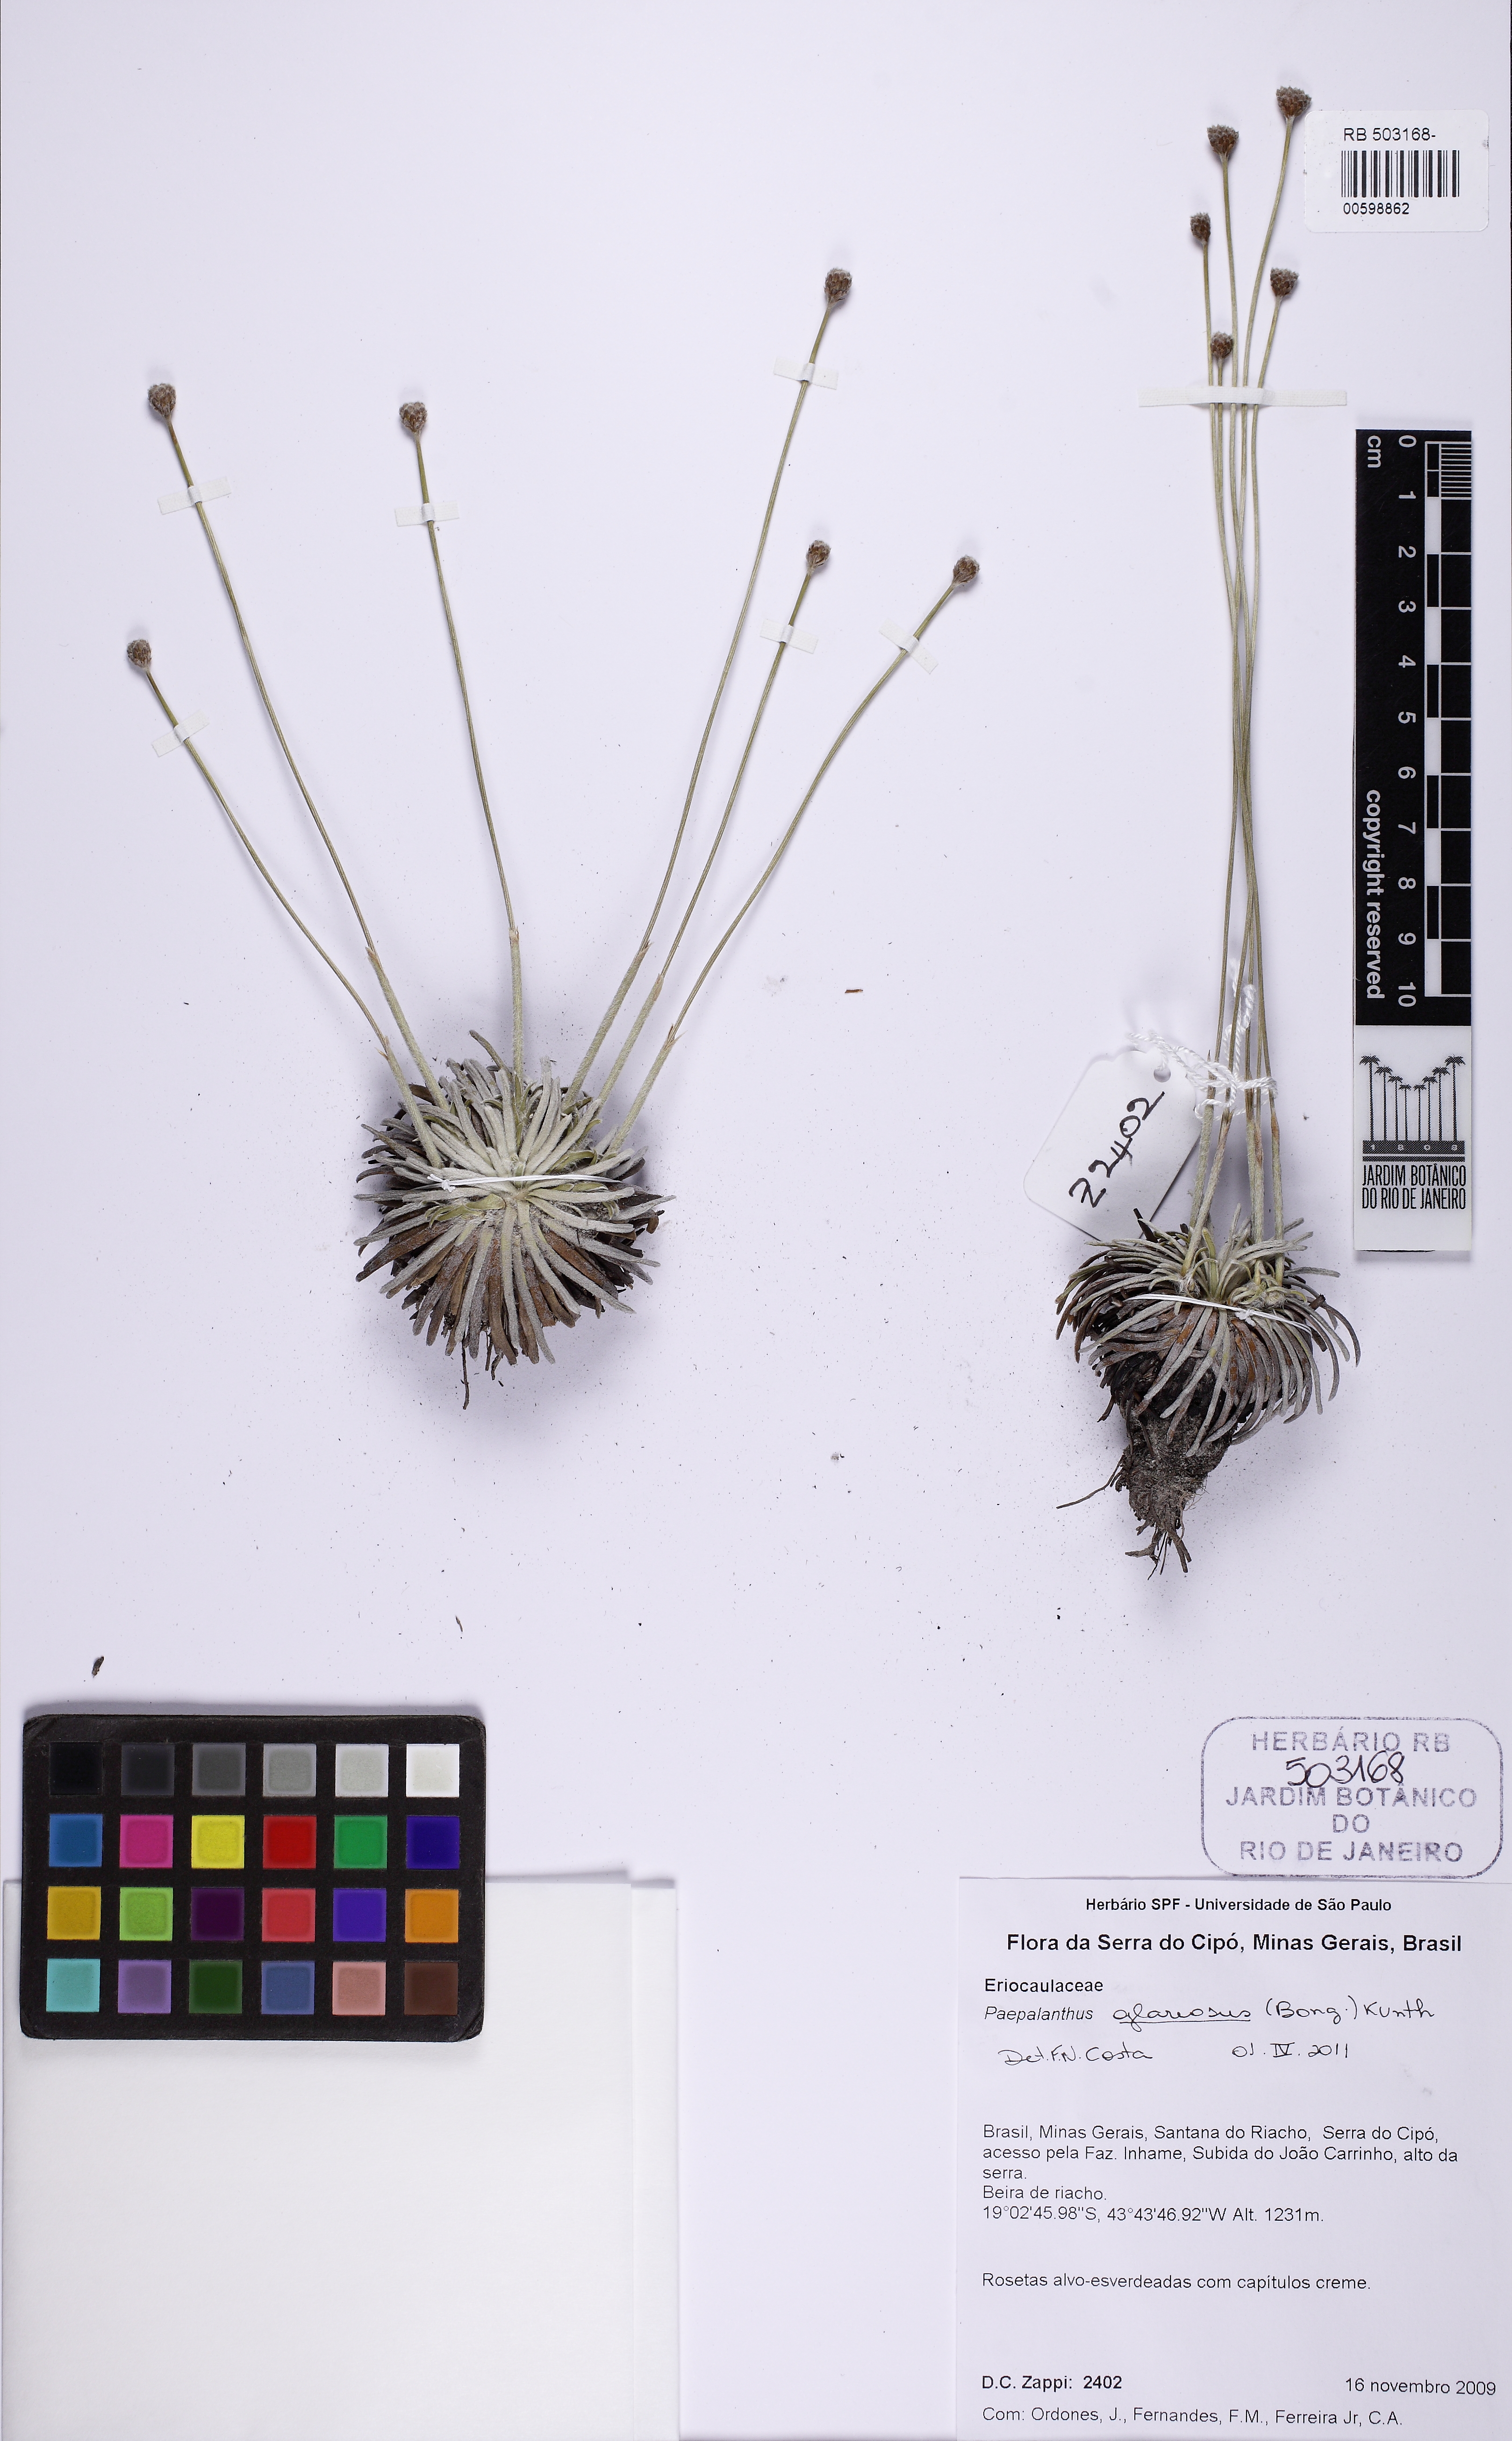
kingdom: Plantae
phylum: Tracheophyta
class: Liliopsida
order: Poales
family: Eriocaulaceae
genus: Paepalanthus
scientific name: Paepalanthus glareosus
